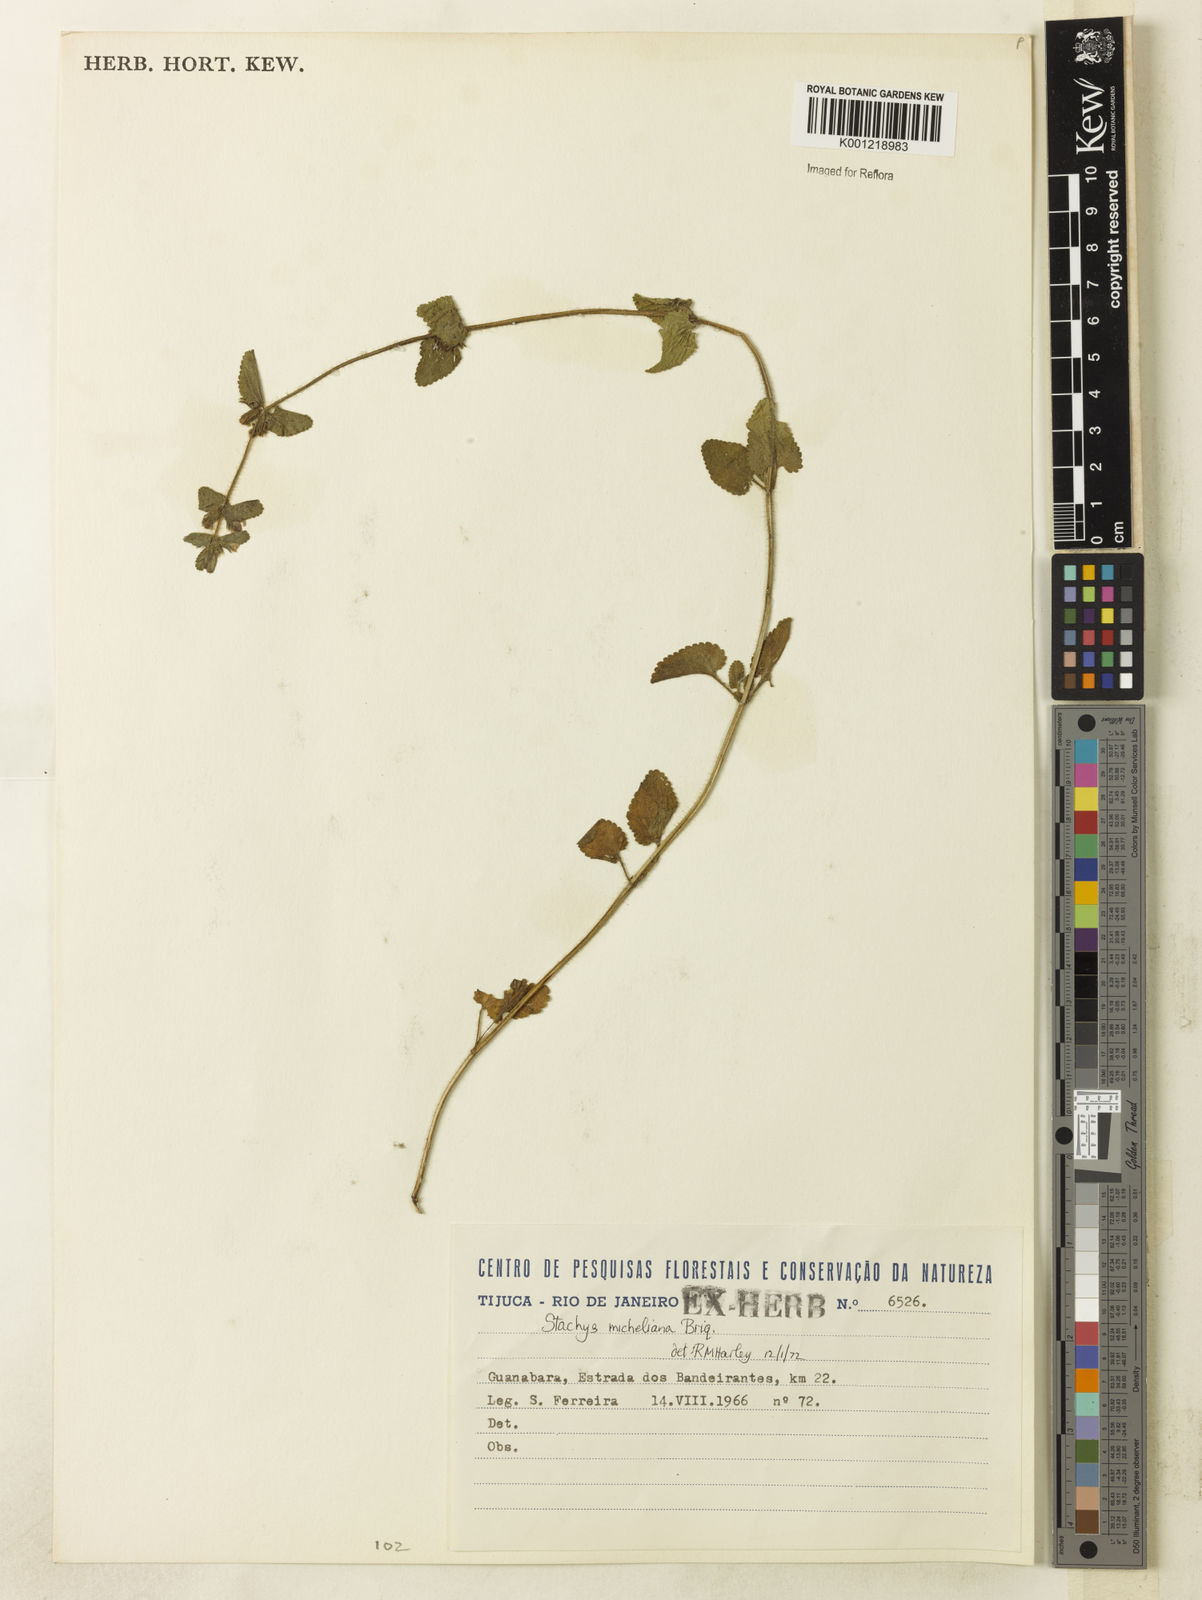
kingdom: Plantae
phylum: Tracheophyta
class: Magnoliopsida
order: Lamiales
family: Lamiaceae
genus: Stachys
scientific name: Stachys
